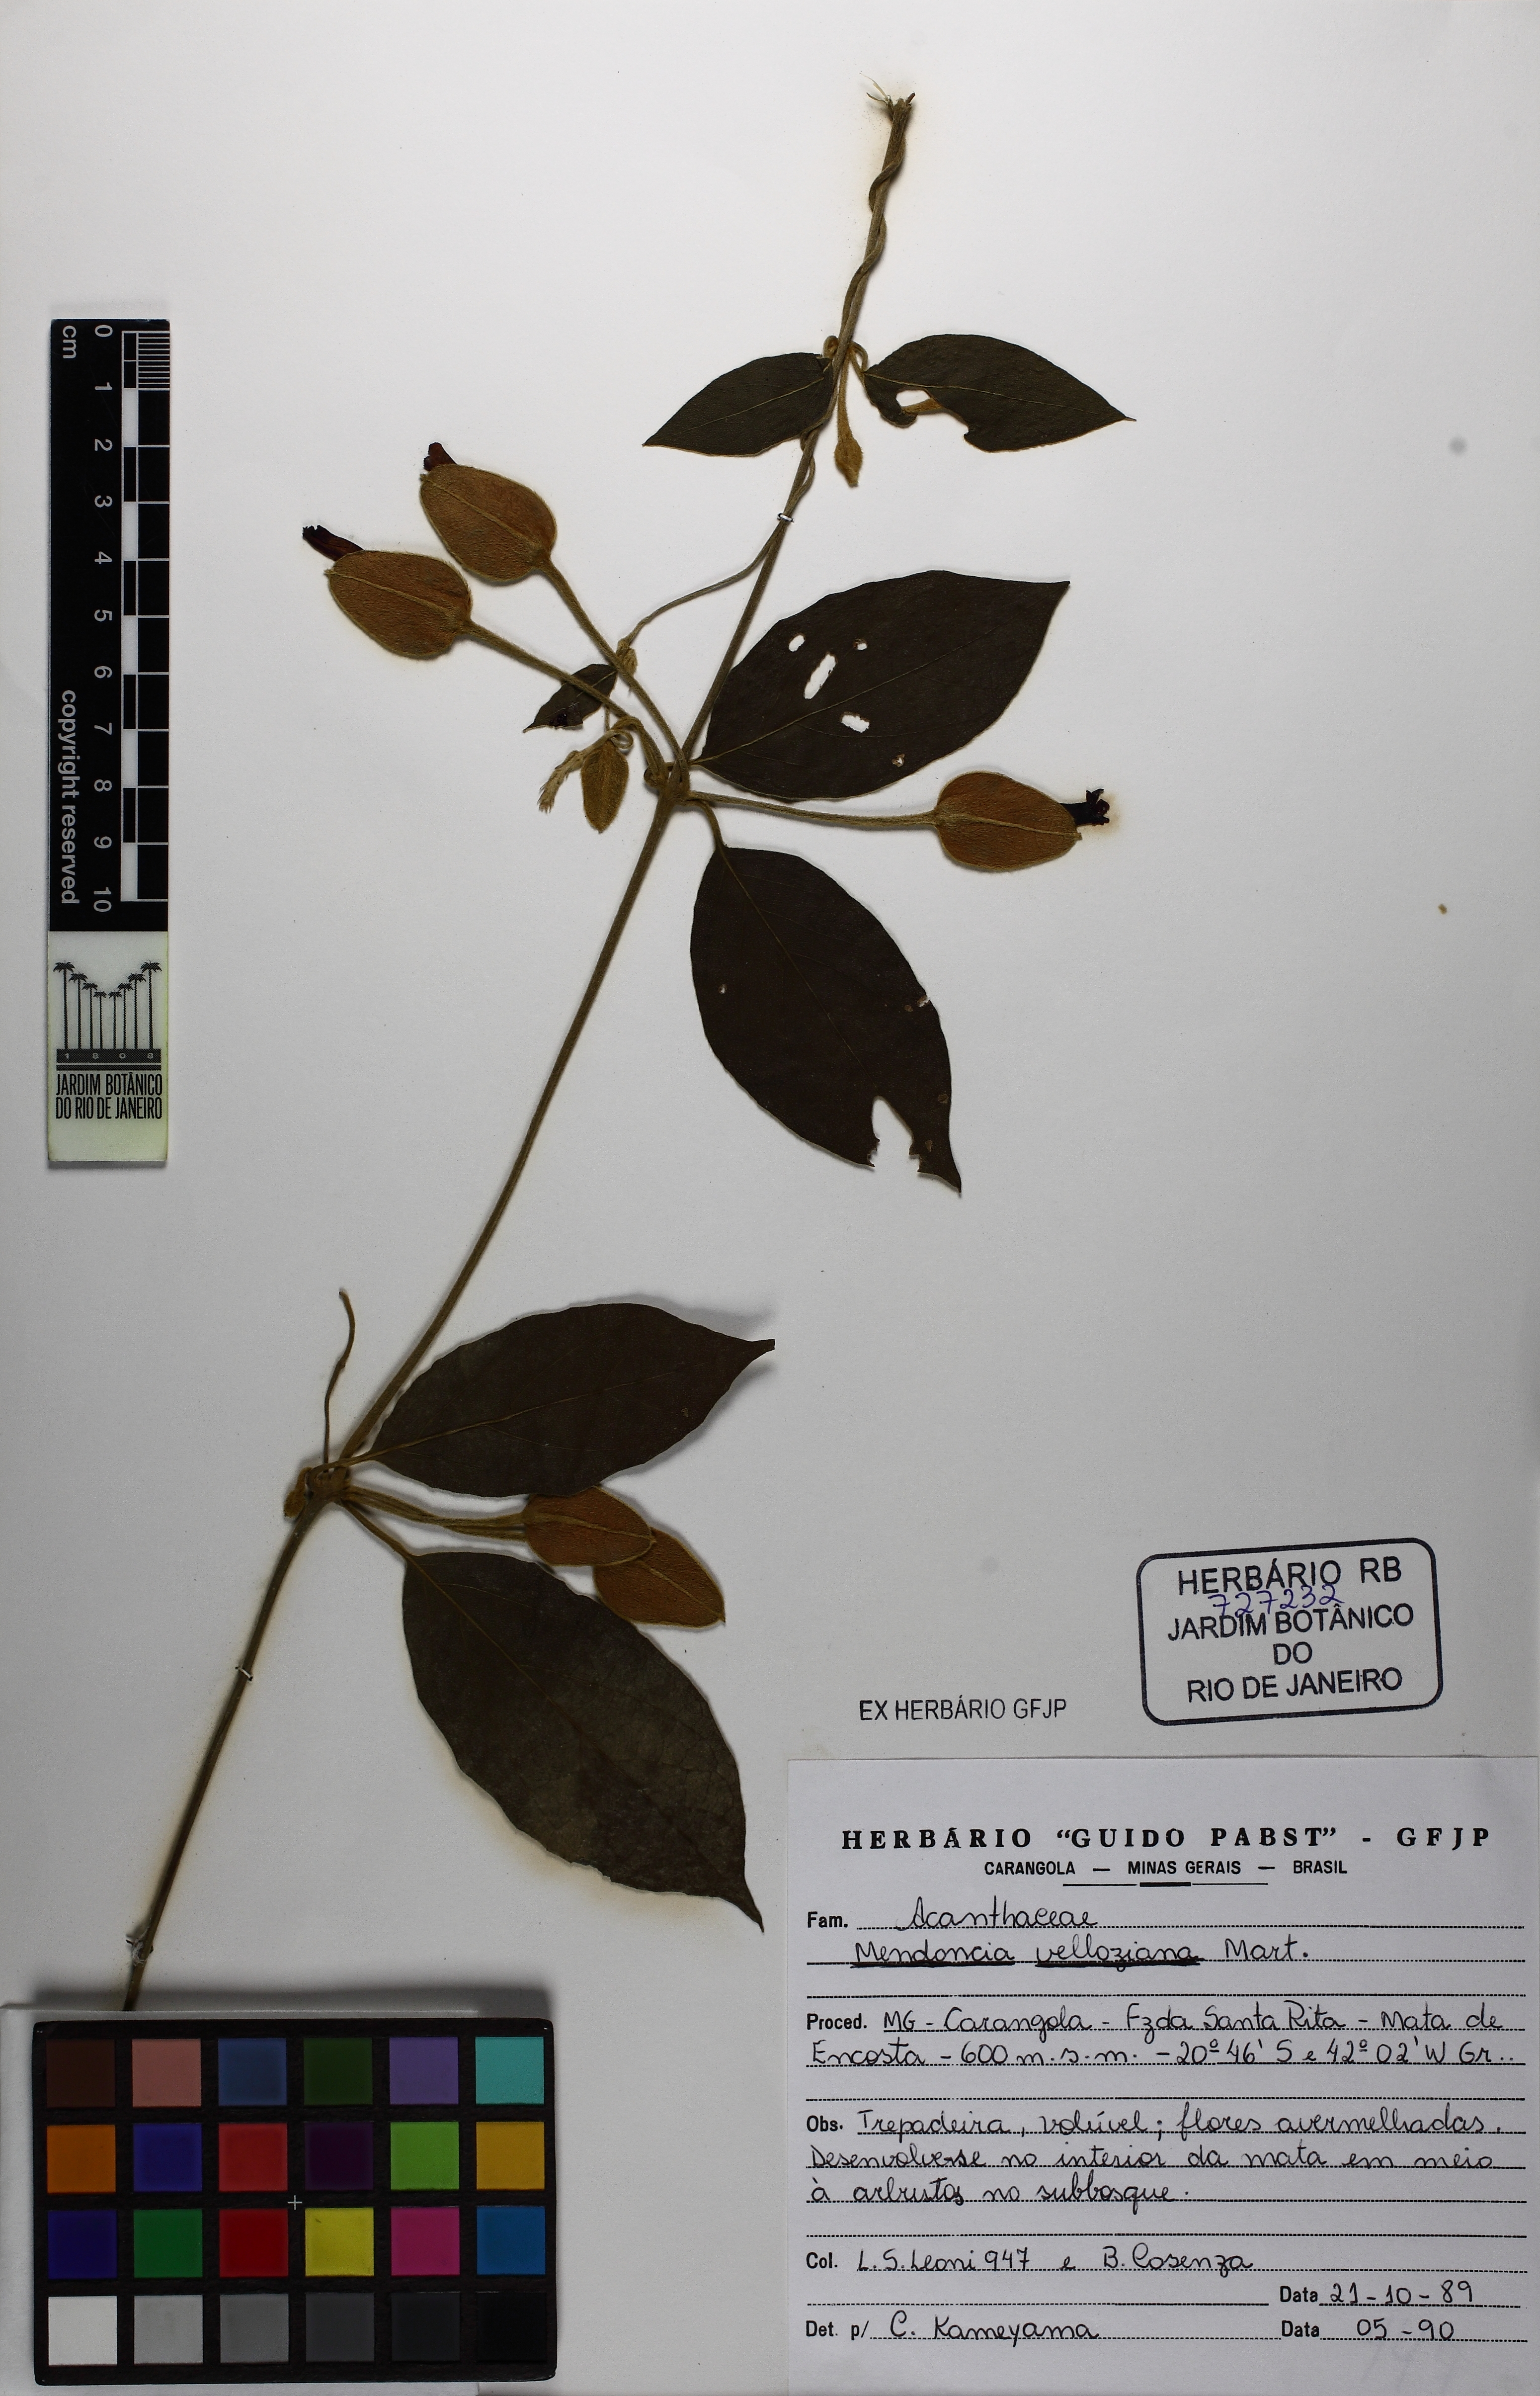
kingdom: Plantae
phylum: Tracheophyta
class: Magnoliopsida
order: Lamiales
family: Acanthaceae
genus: Mendoncia
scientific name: Mendoncia velloziana
